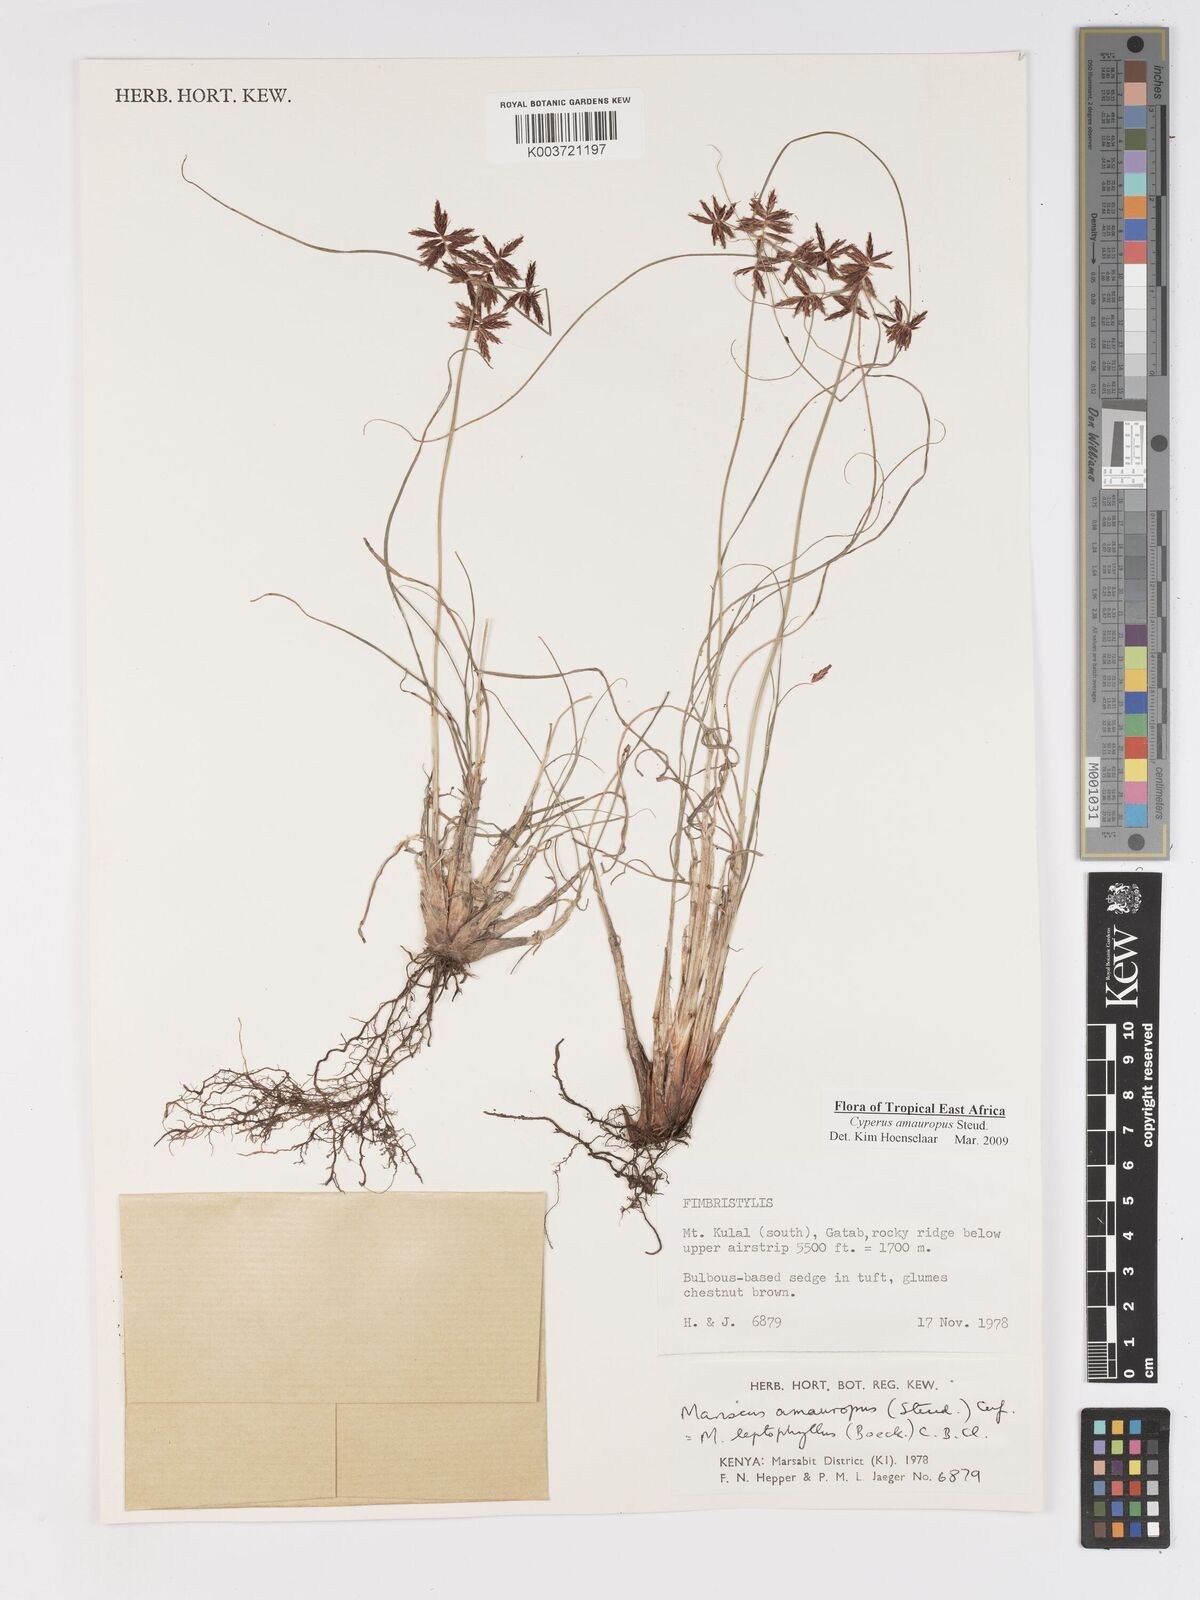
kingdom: Plantae
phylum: Tracheophyta
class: Liliopsida
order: Poales
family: Cyperaceae
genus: Cyperus
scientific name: Cyperus amauropus
